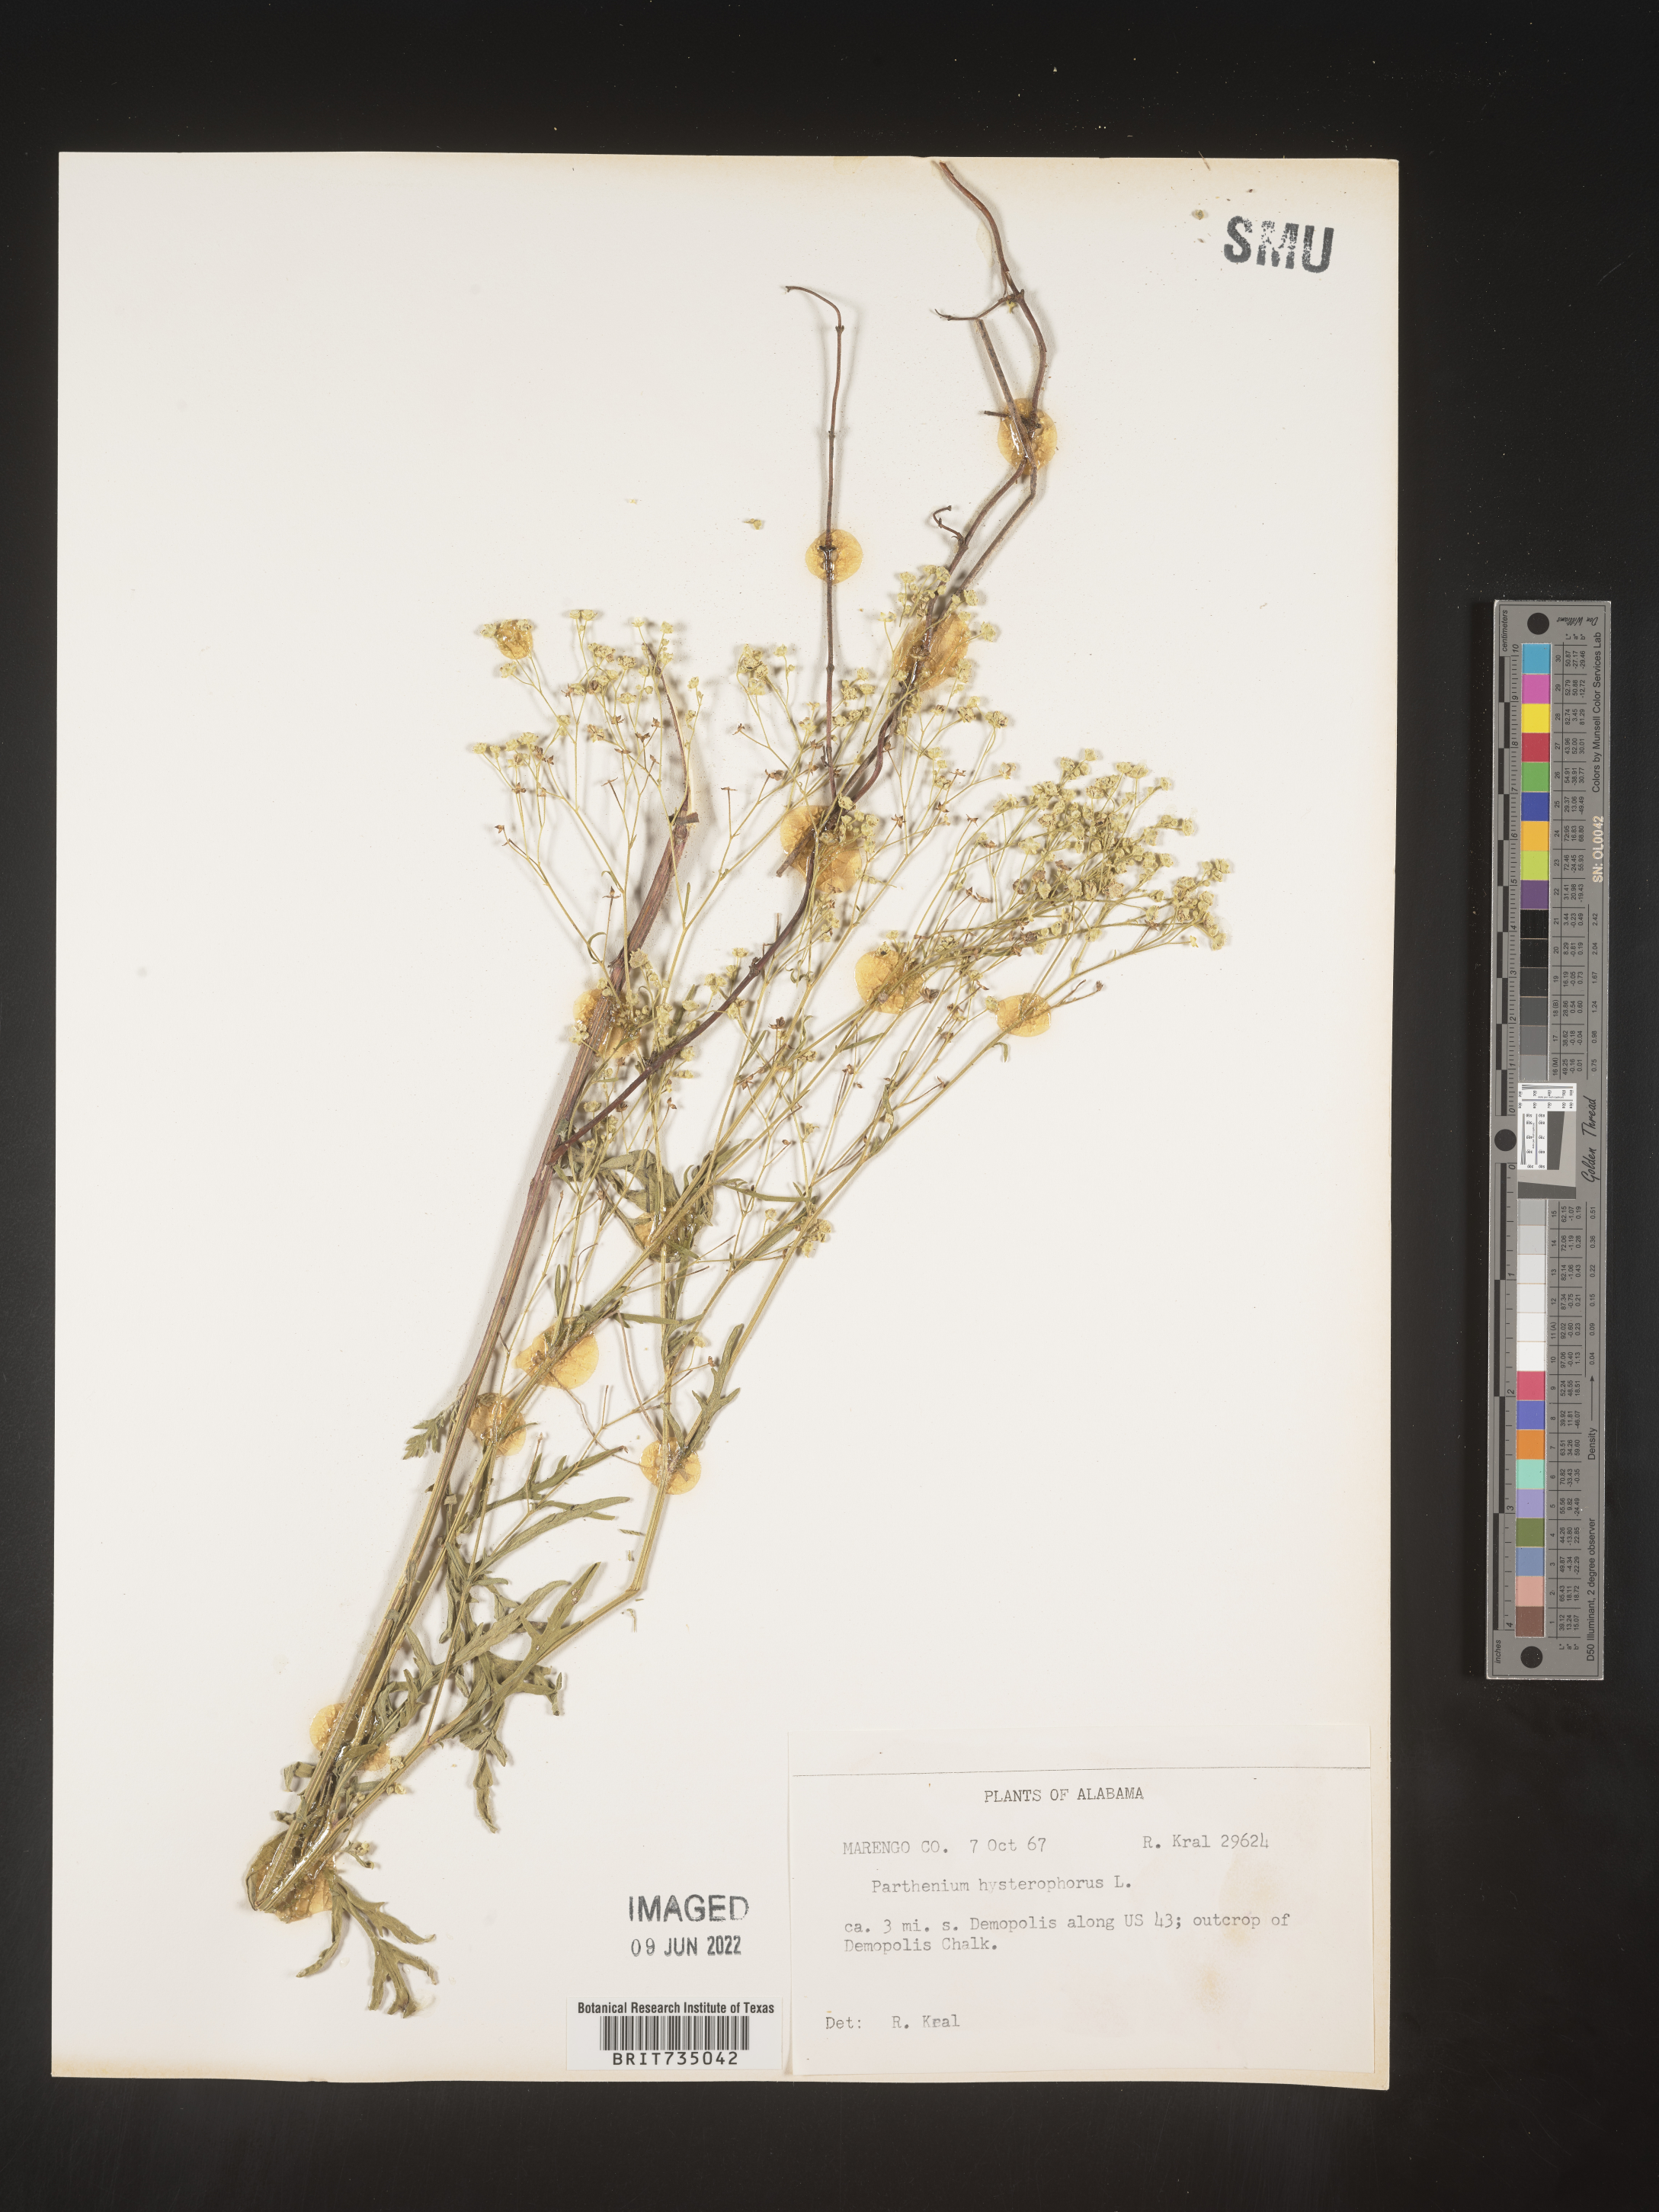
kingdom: Plantae
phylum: Tracheophyta
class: Magnoliopsida
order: Asterales
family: Asteraceae
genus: Parthenium
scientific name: Parthenium hysterophorus
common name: Santa maria feverfew
